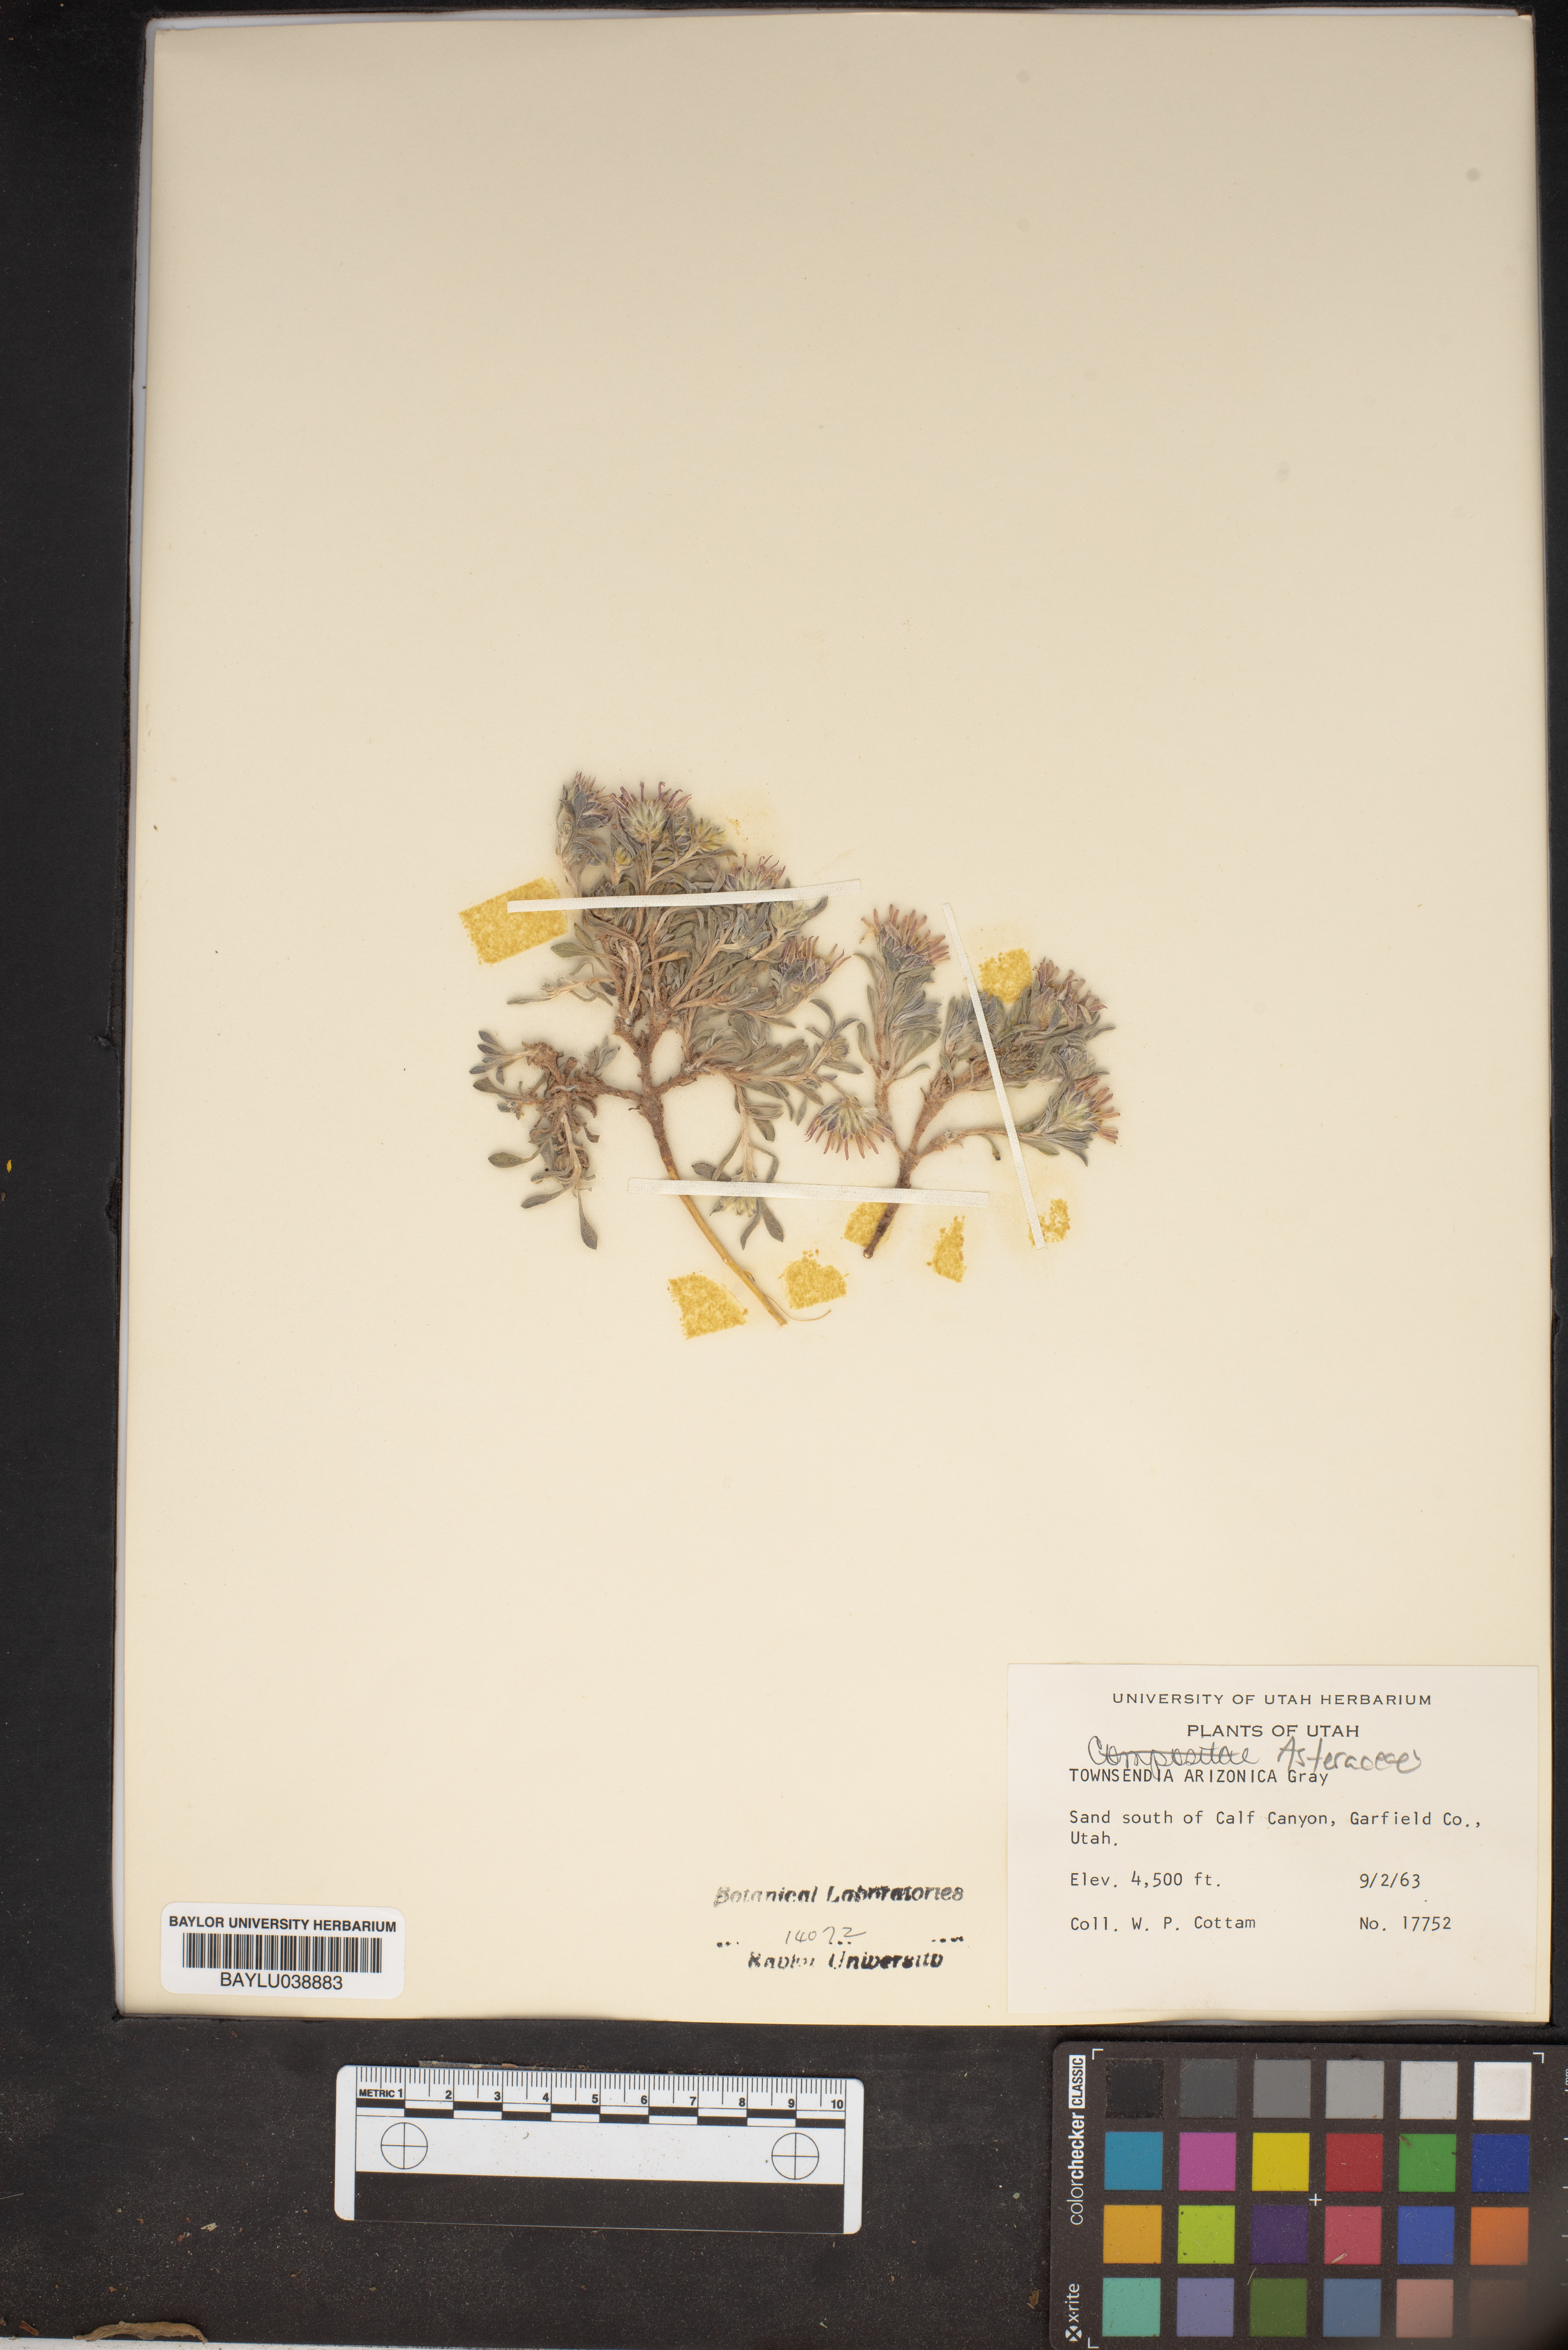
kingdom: Plantae
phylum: Tracheophyta
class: Magnoliopsida
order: Asterales
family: Asteraceae
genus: Townsendia
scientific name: Townsendia incana
